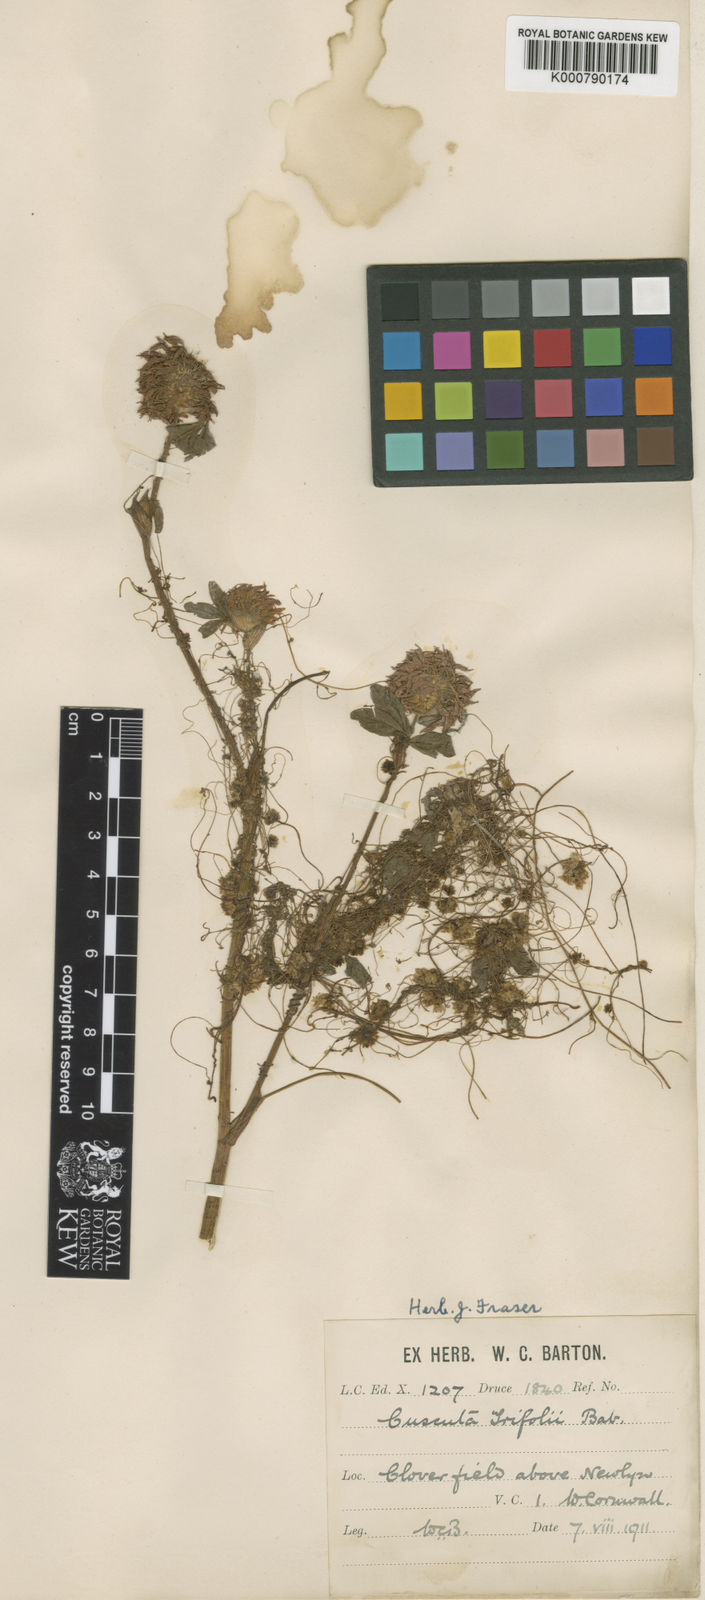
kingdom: Plantae
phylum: Tracheophyta
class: Magnoliopsida
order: Solanales
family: Convolvulaceae
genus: Cuscuta
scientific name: Cuscuta epithymum
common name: Clover dodder
